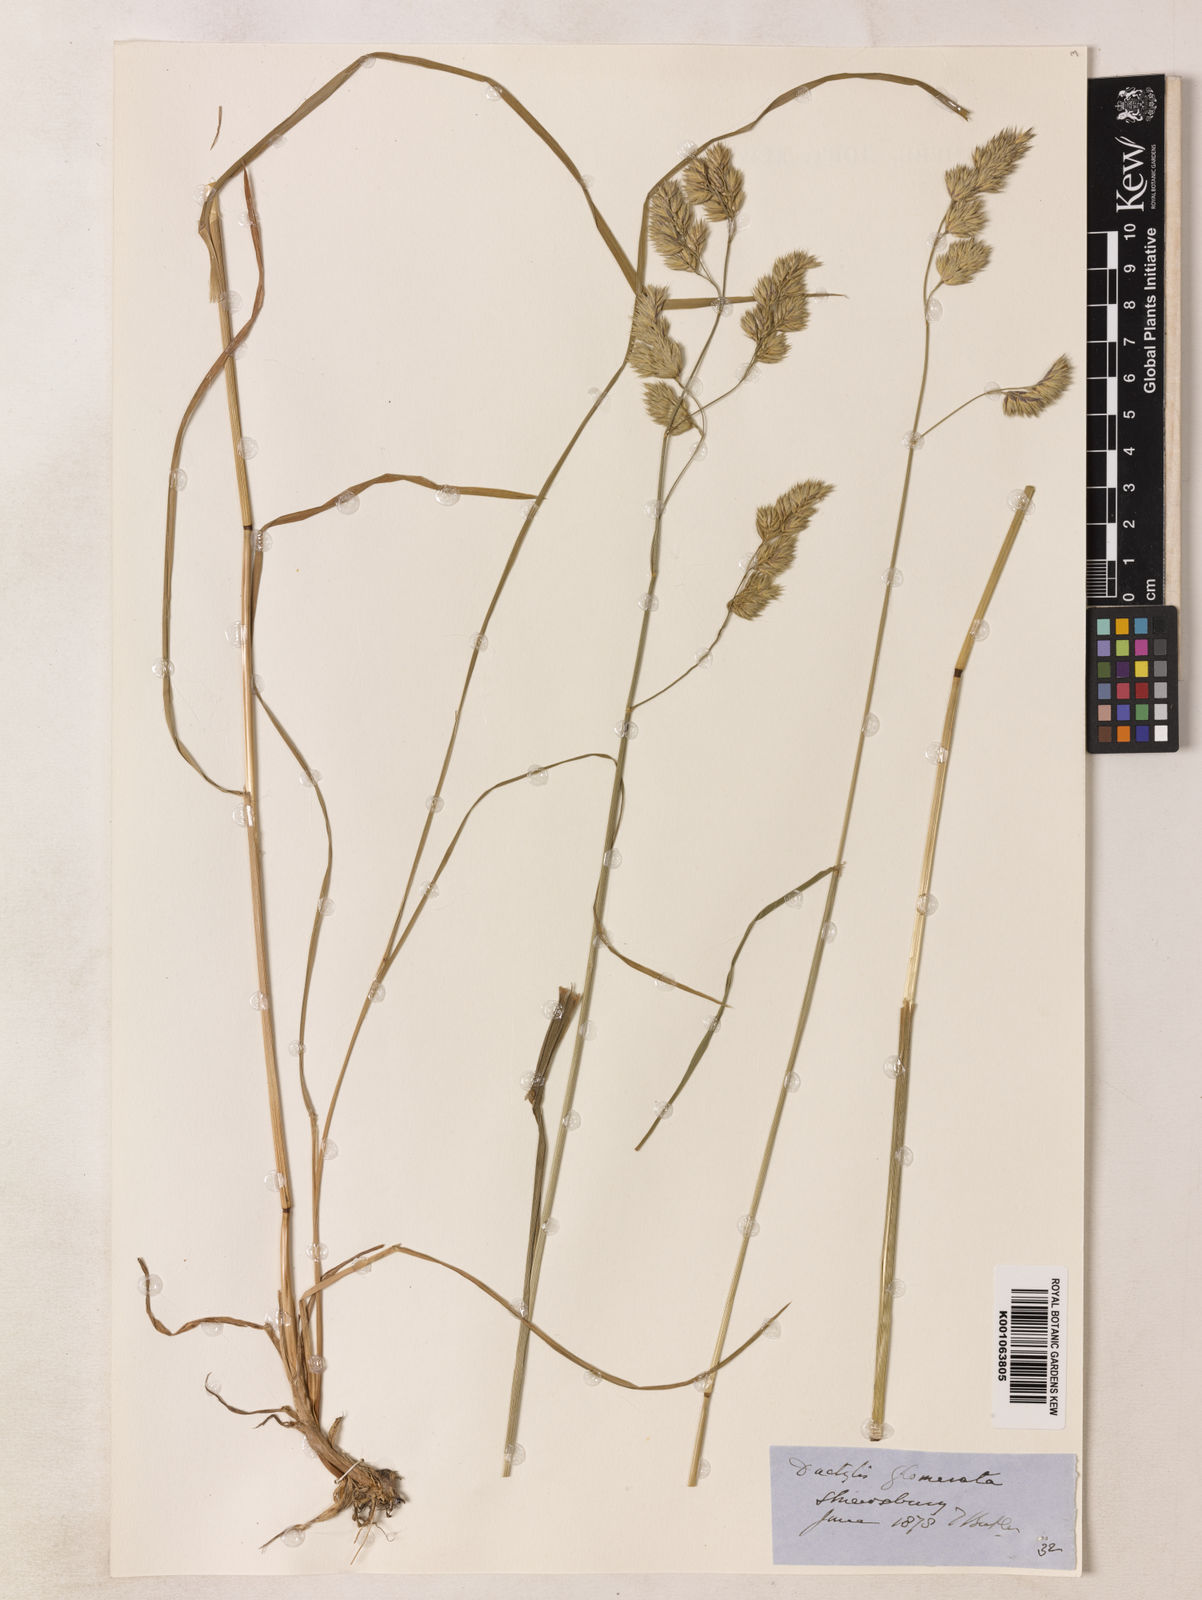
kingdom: Plantae
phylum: Tracheophyta
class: Liliopsida
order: Poales
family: Poaceae
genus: Dactylis
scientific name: Dactylis glomerata
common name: Orchardgrass
